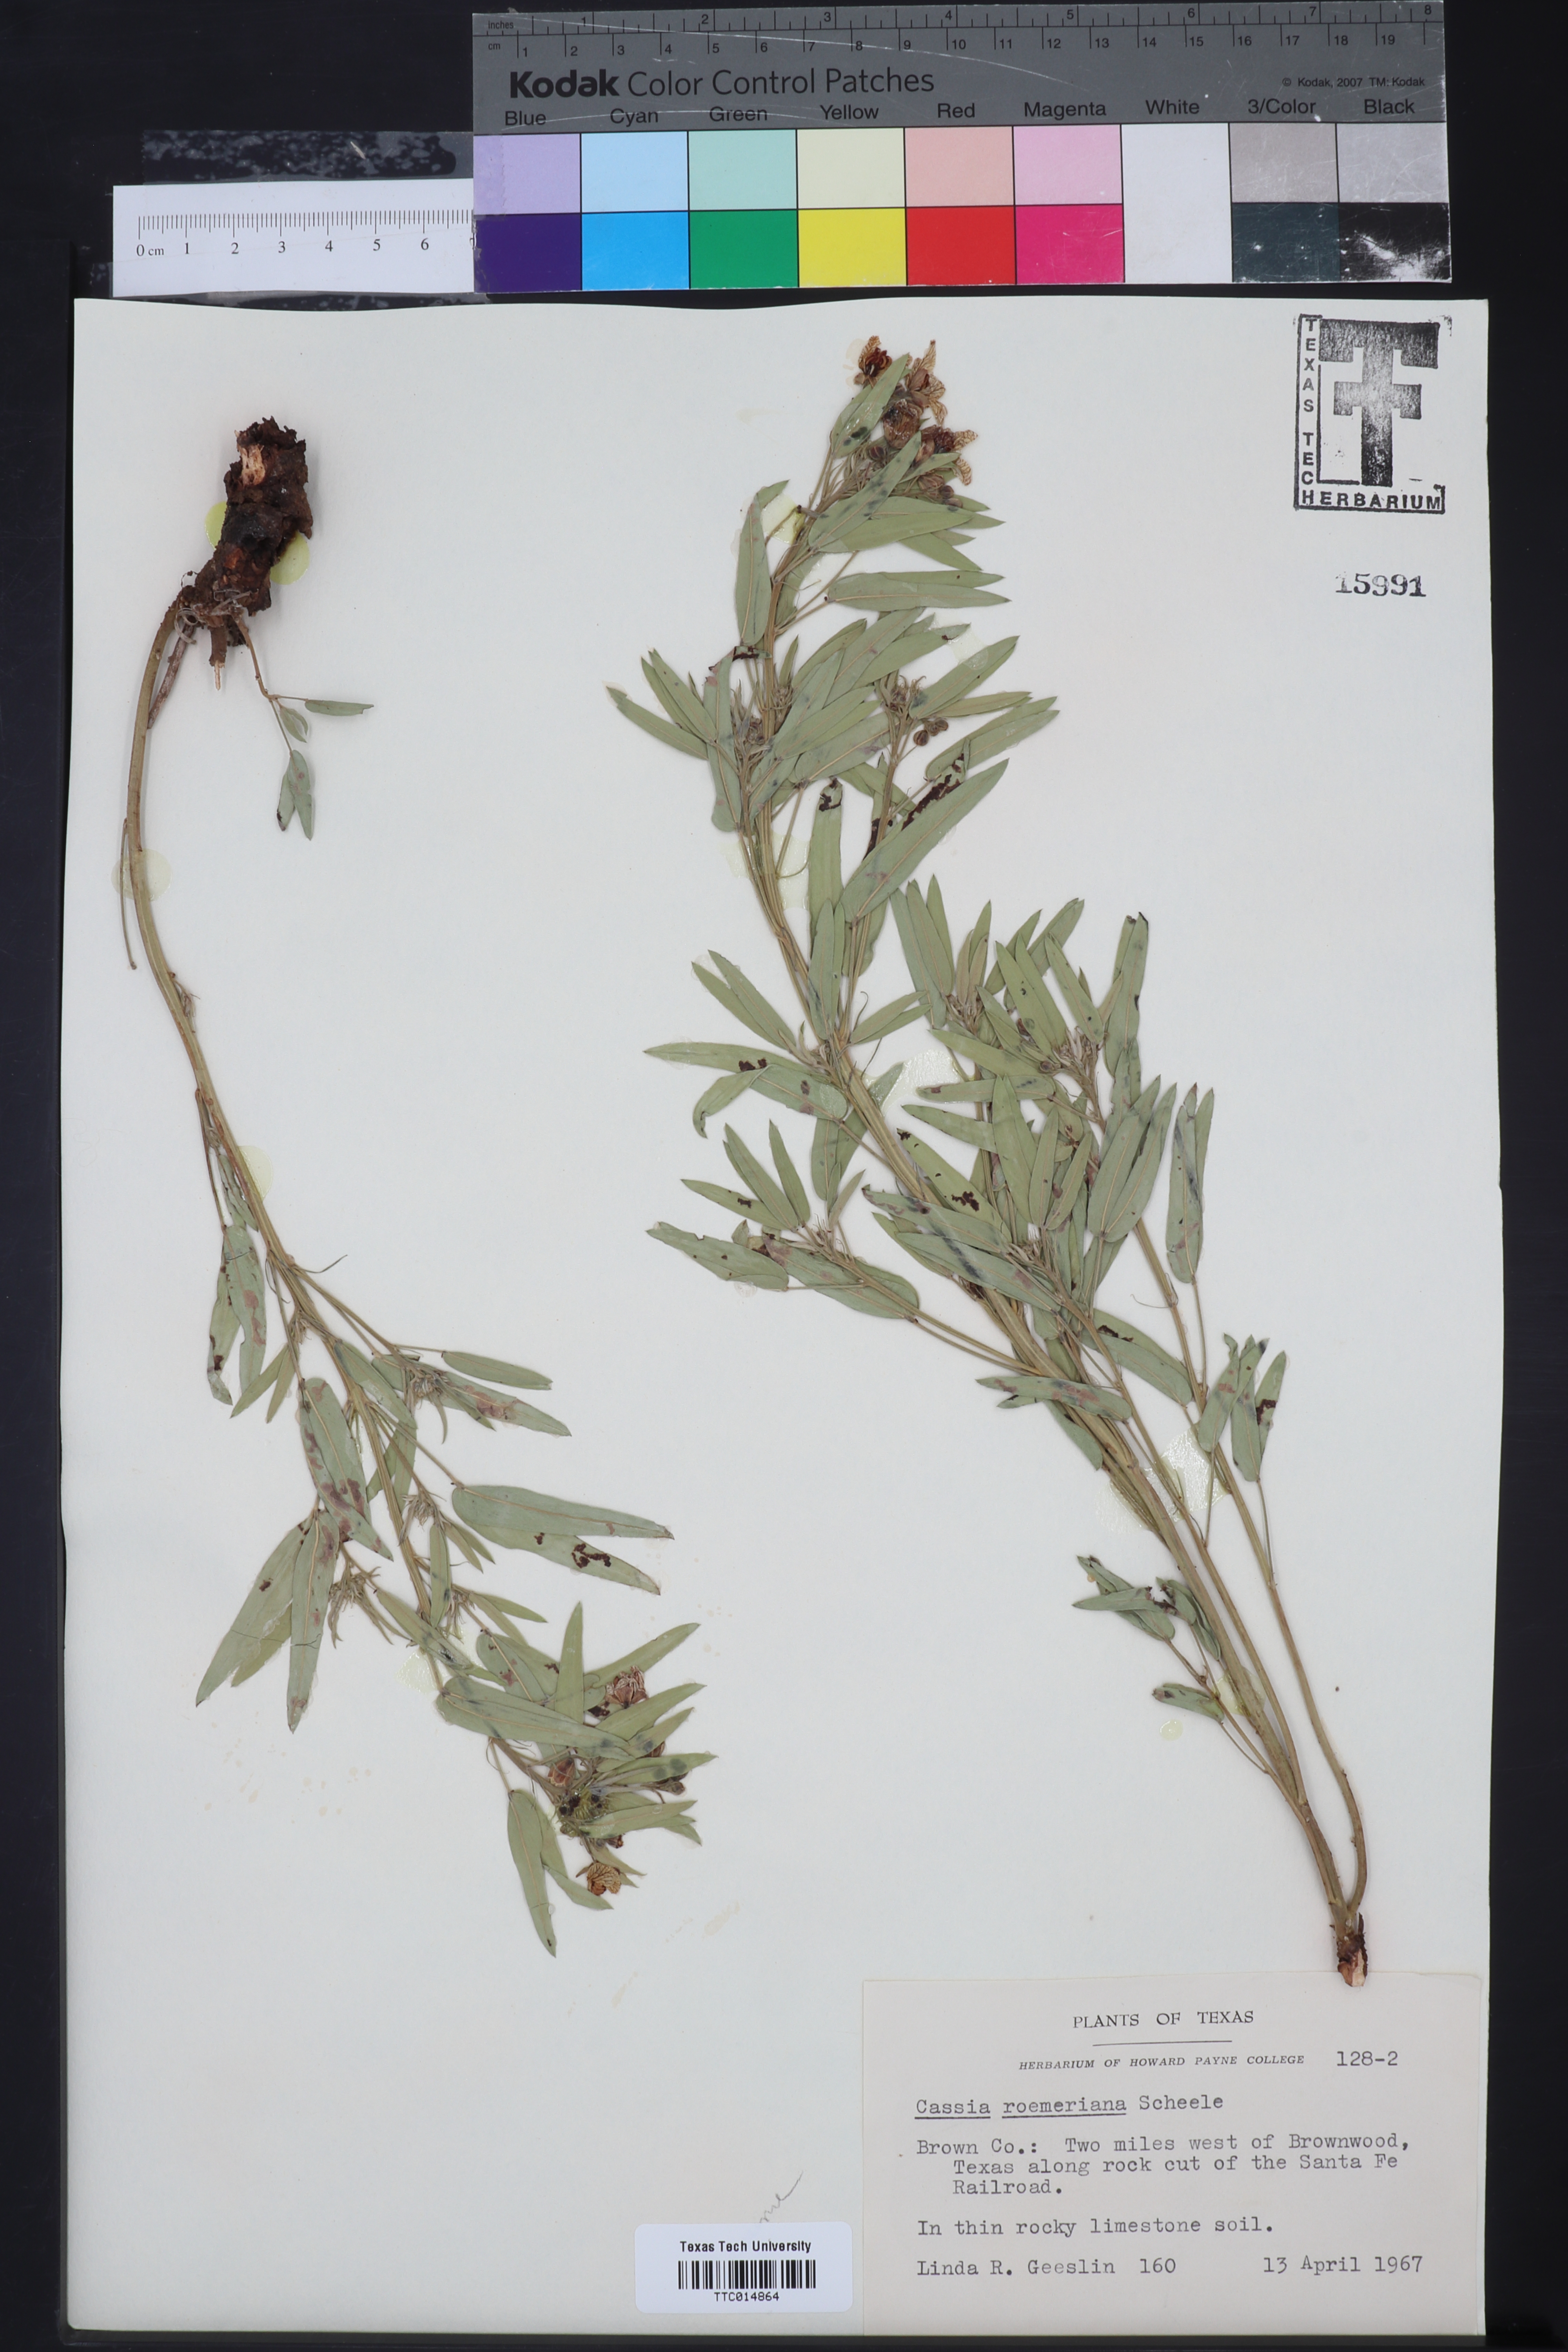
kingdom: Plantae
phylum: Tracheophyta
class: Magnoliopsida
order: Fabales
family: Fabaceae
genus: Senna
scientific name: Senna roemeriana
